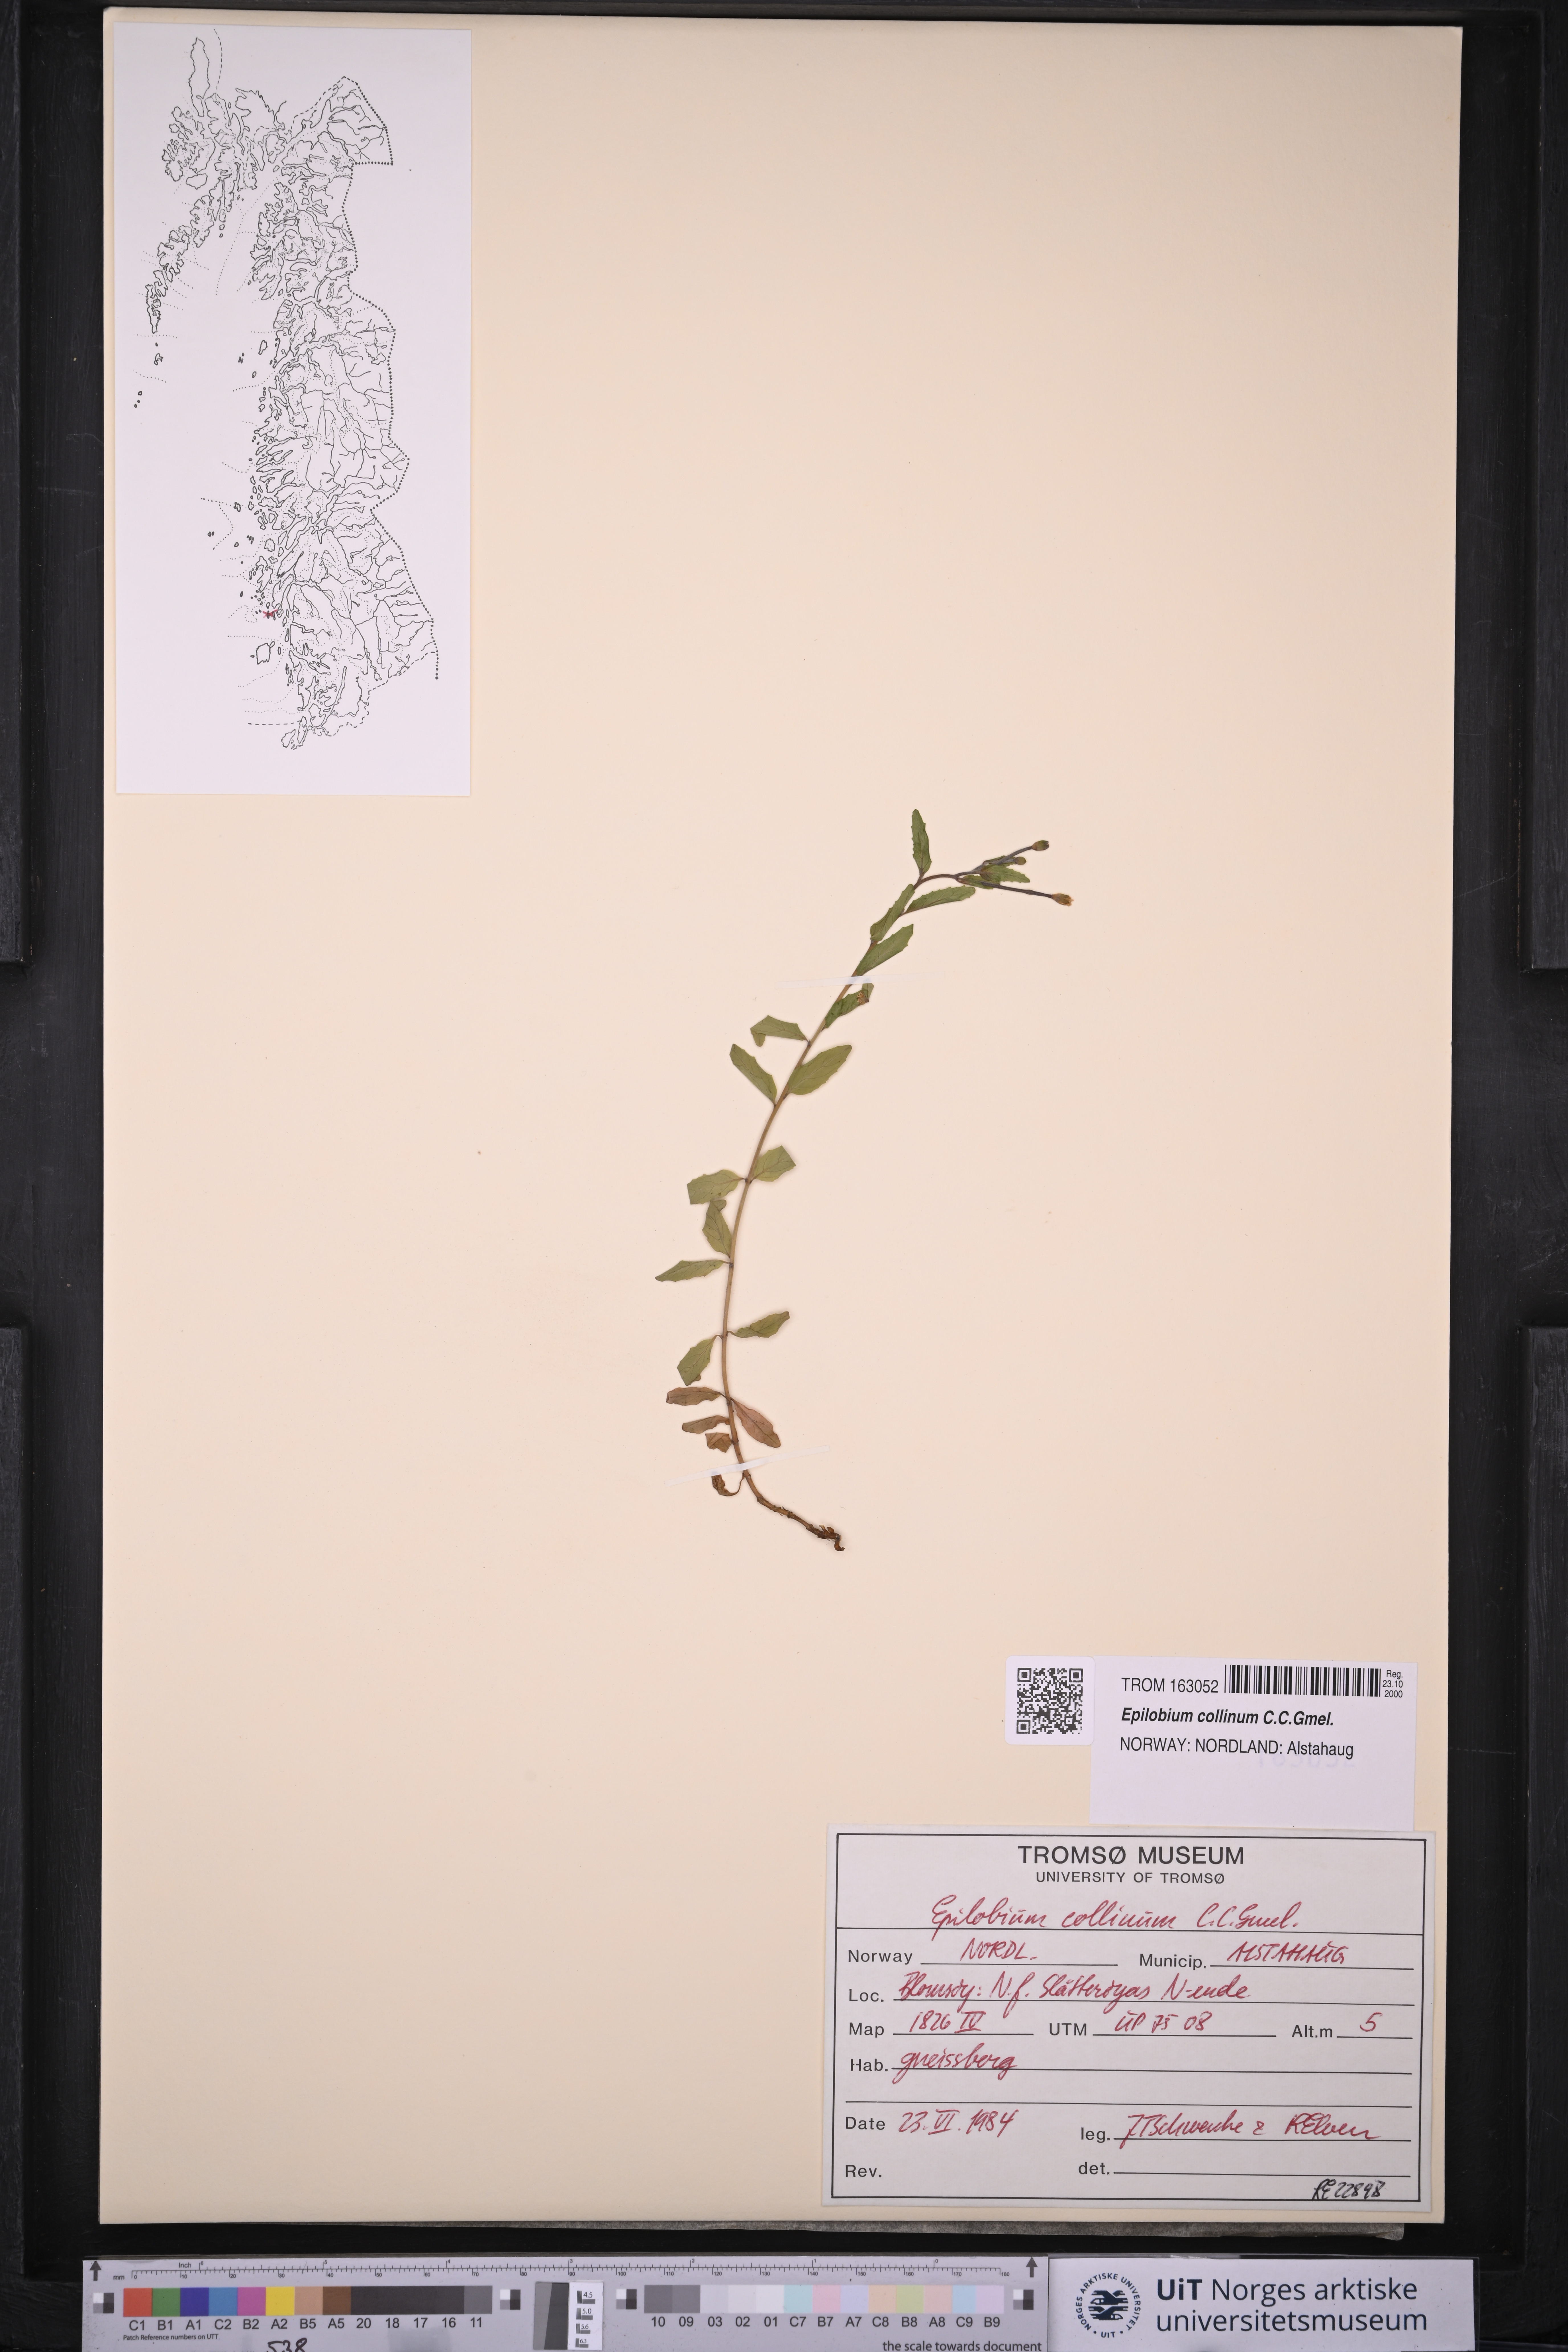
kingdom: Plantae
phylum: Tracheophyta
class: Magnoliopsida
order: Myrtales
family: Onagraceae
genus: Epilobium
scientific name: Epilobium collinum
